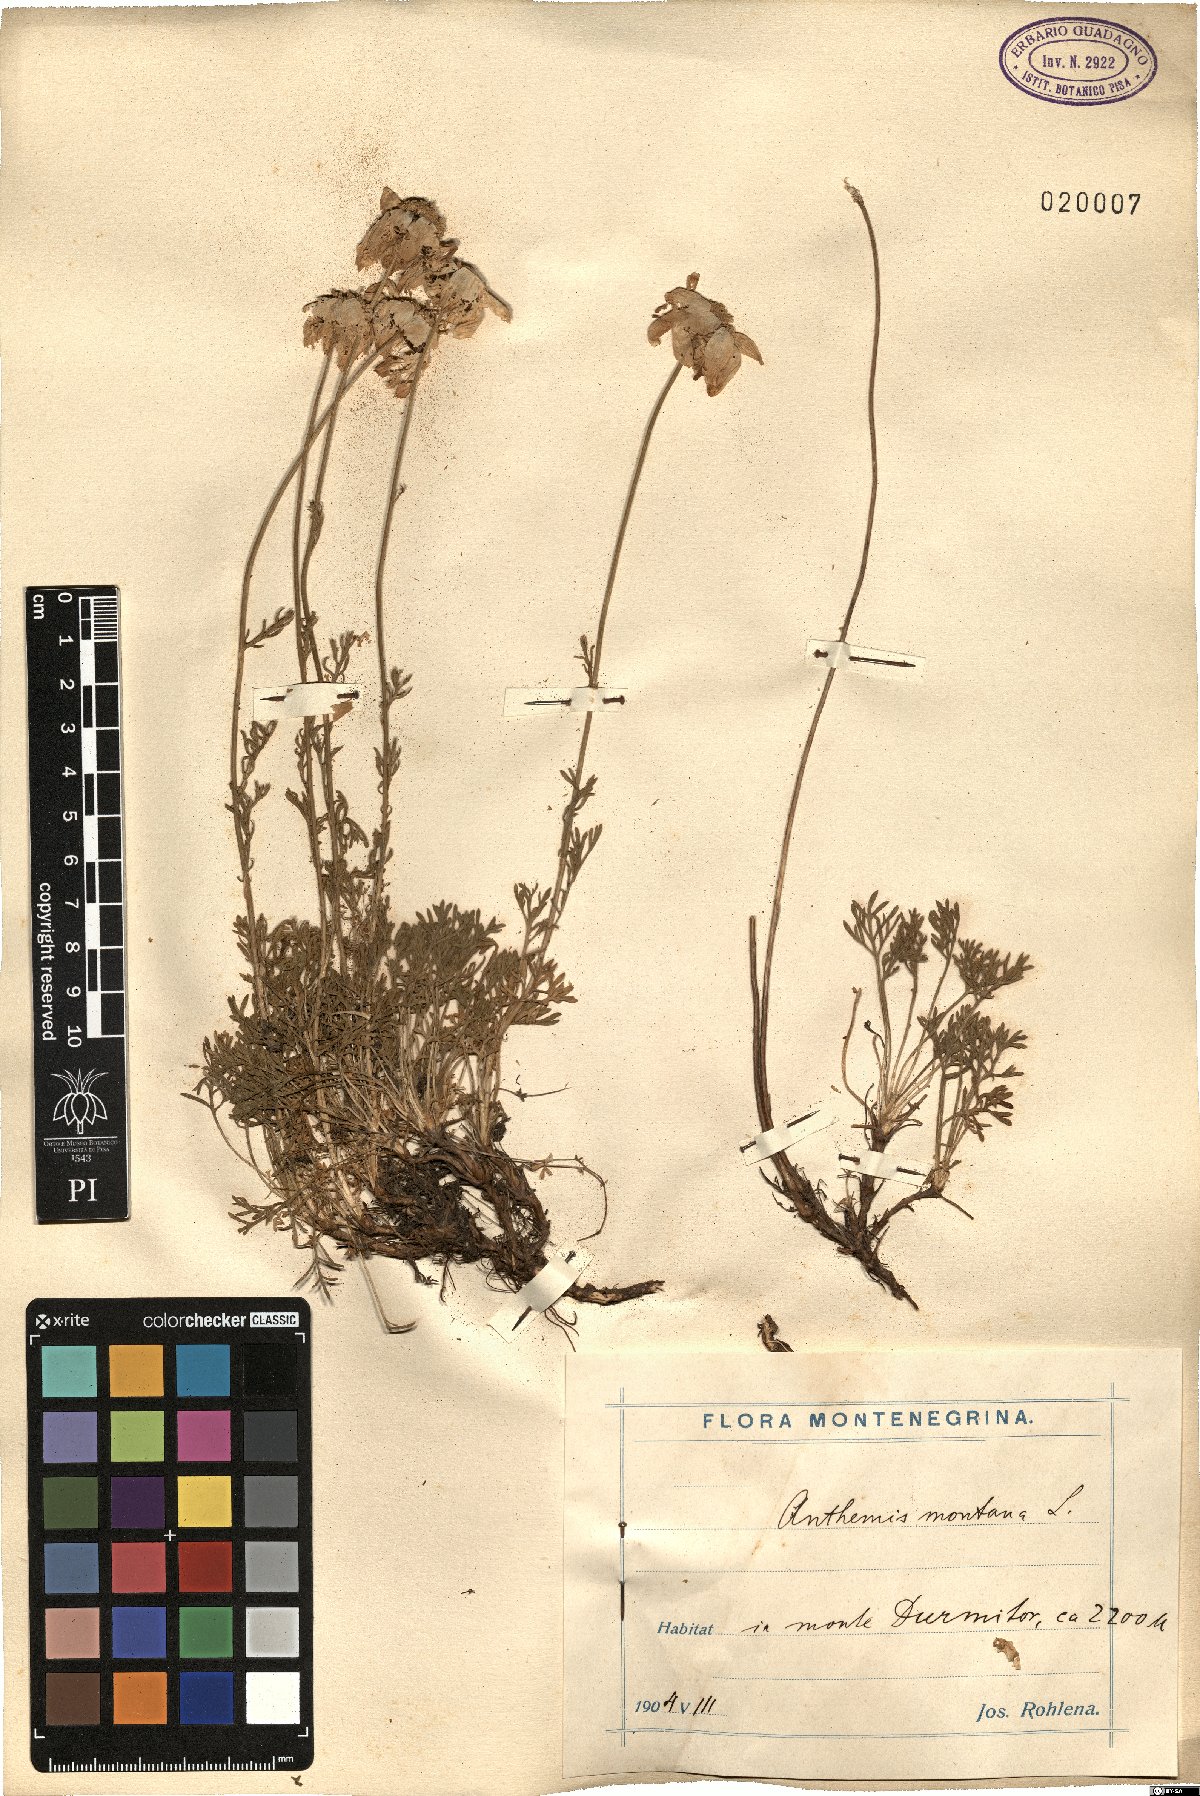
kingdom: Plantae
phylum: Tracheophyta
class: Magnoliopsida
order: Asterales
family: Asteraceae
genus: Anthemis
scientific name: Anthemis cretica
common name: Mountain dog-daisy
